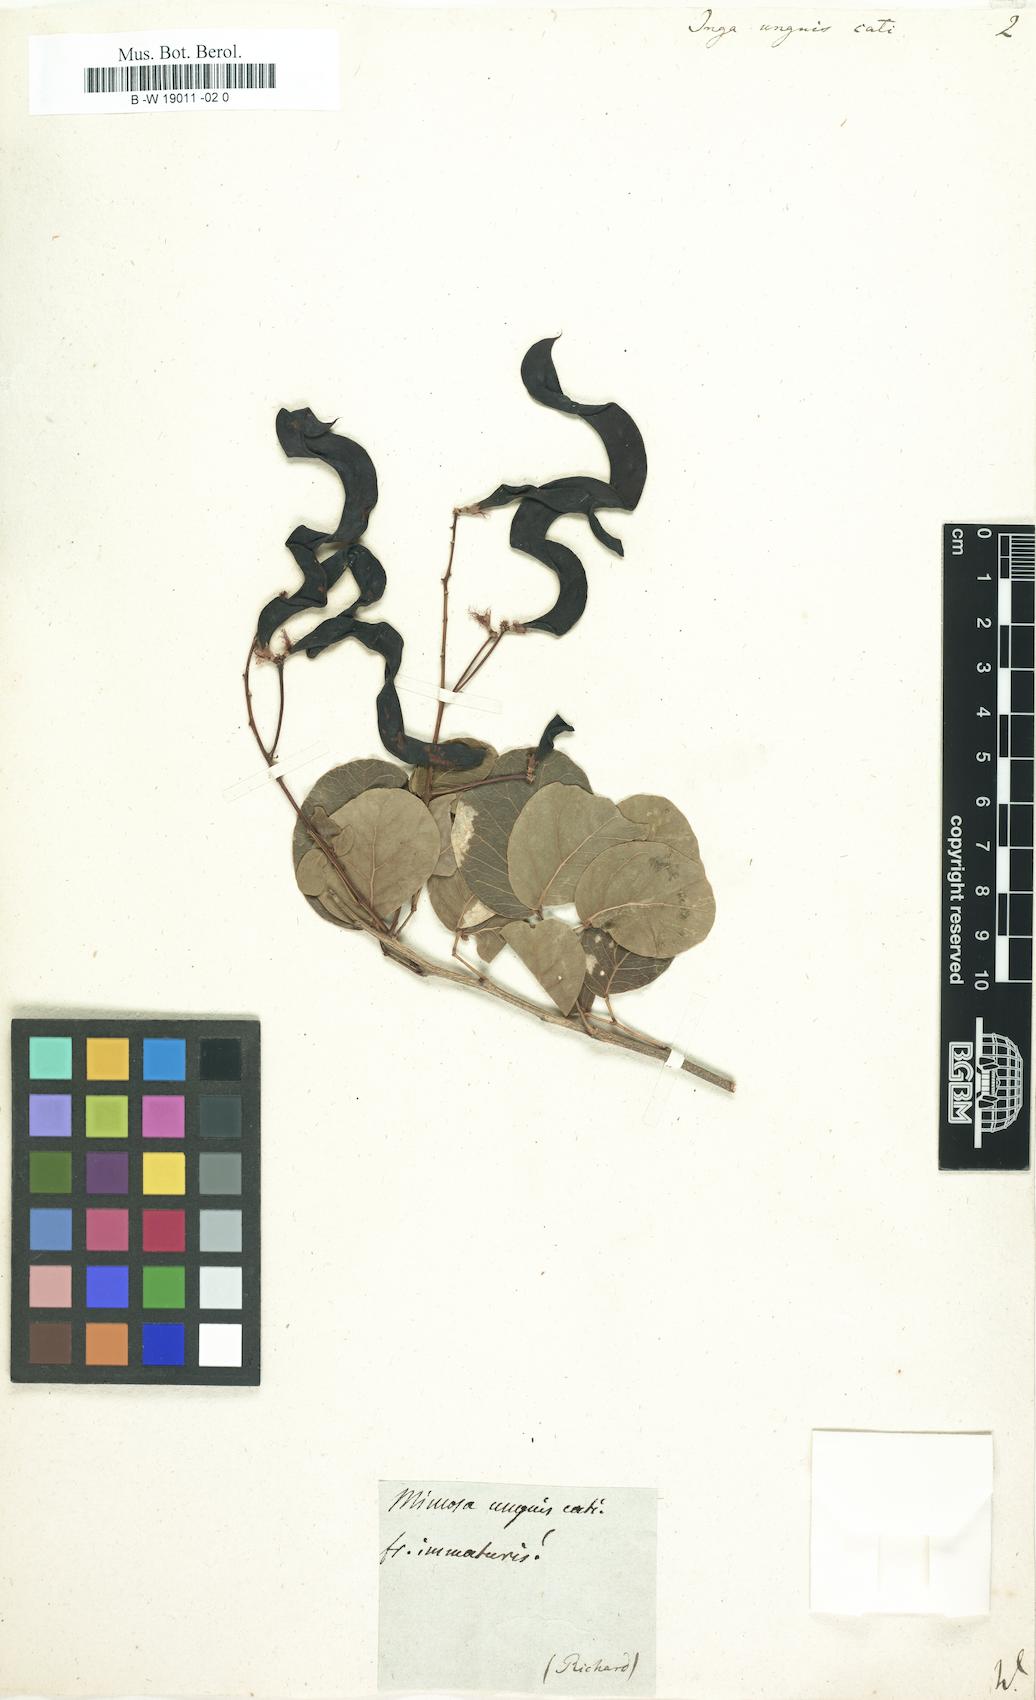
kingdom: Plantae
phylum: Tracheophyta
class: Magnoliopsida
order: Fabales
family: Fabaceae
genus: Pithecellobium
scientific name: Pithecellobium unguis-cati
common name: Cat's-claw
